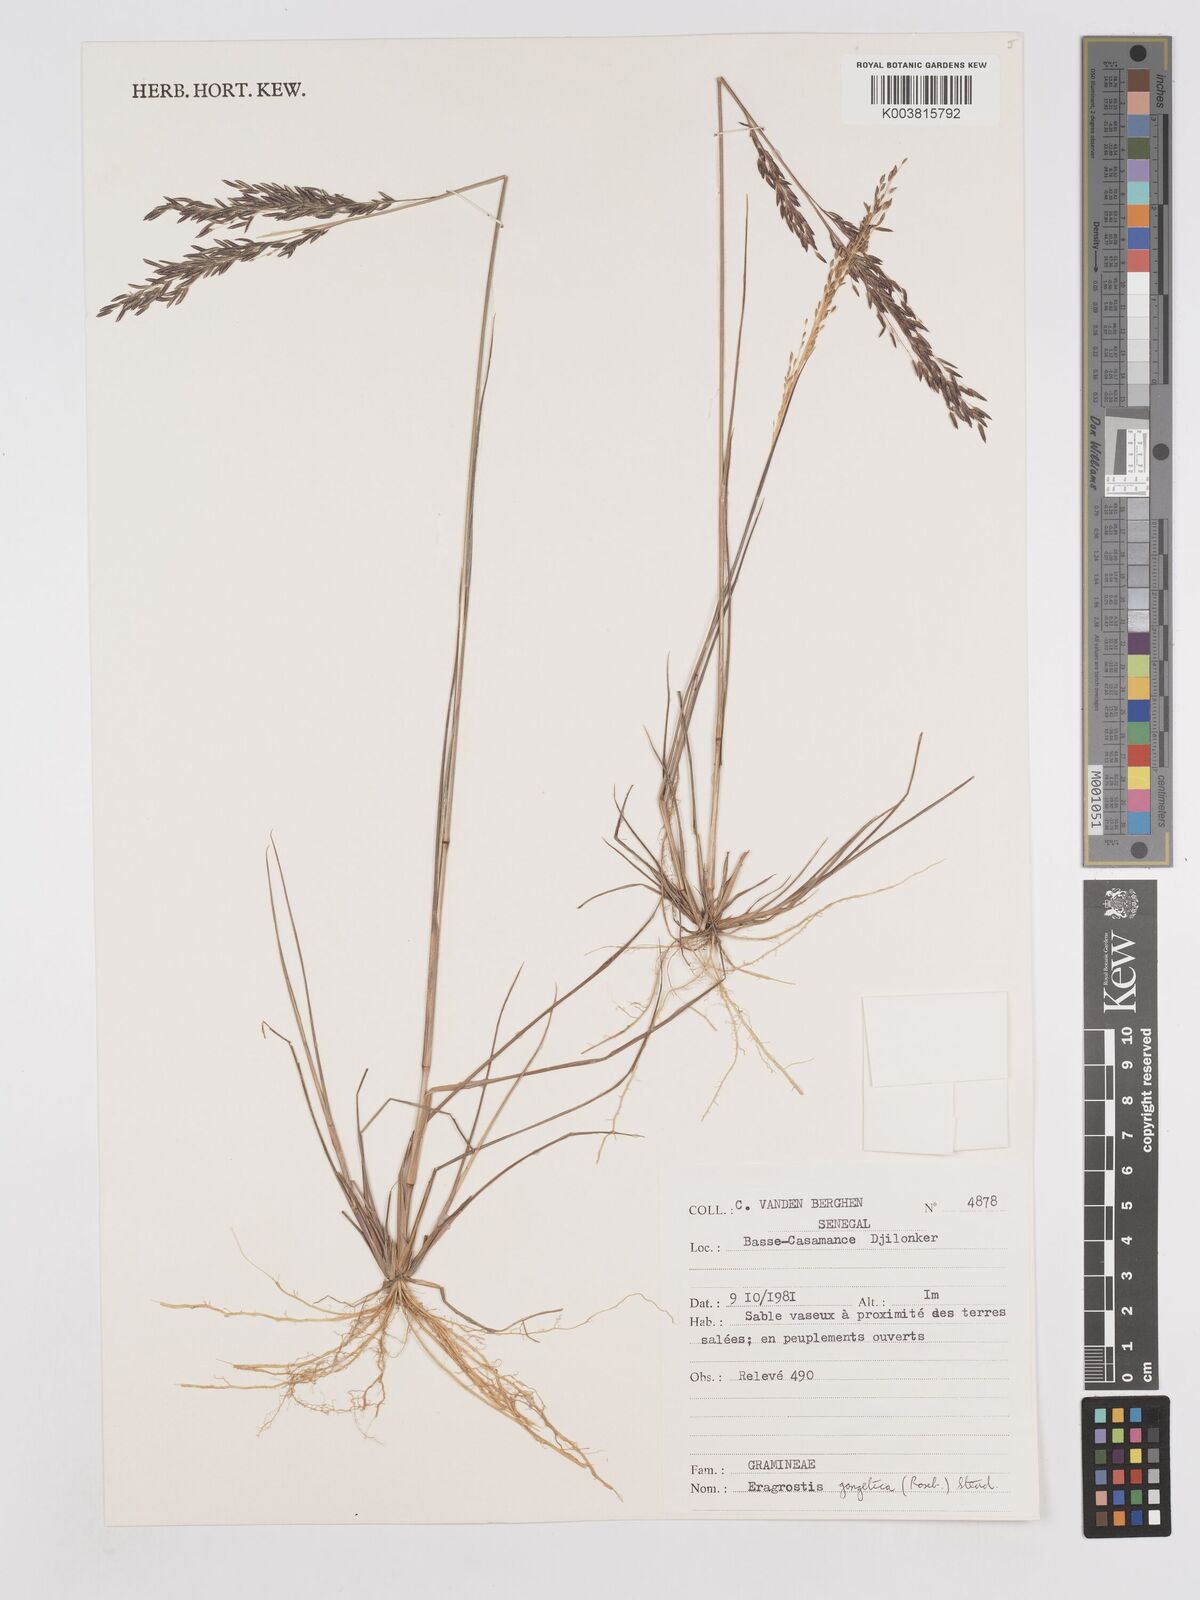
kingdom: Plantae
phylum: Tracheophyta
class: Liliopsida
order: Poales
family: Poaceae
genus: Eragrostis
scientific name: Eragrostis gangetica
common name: Slimflower lovegrass
